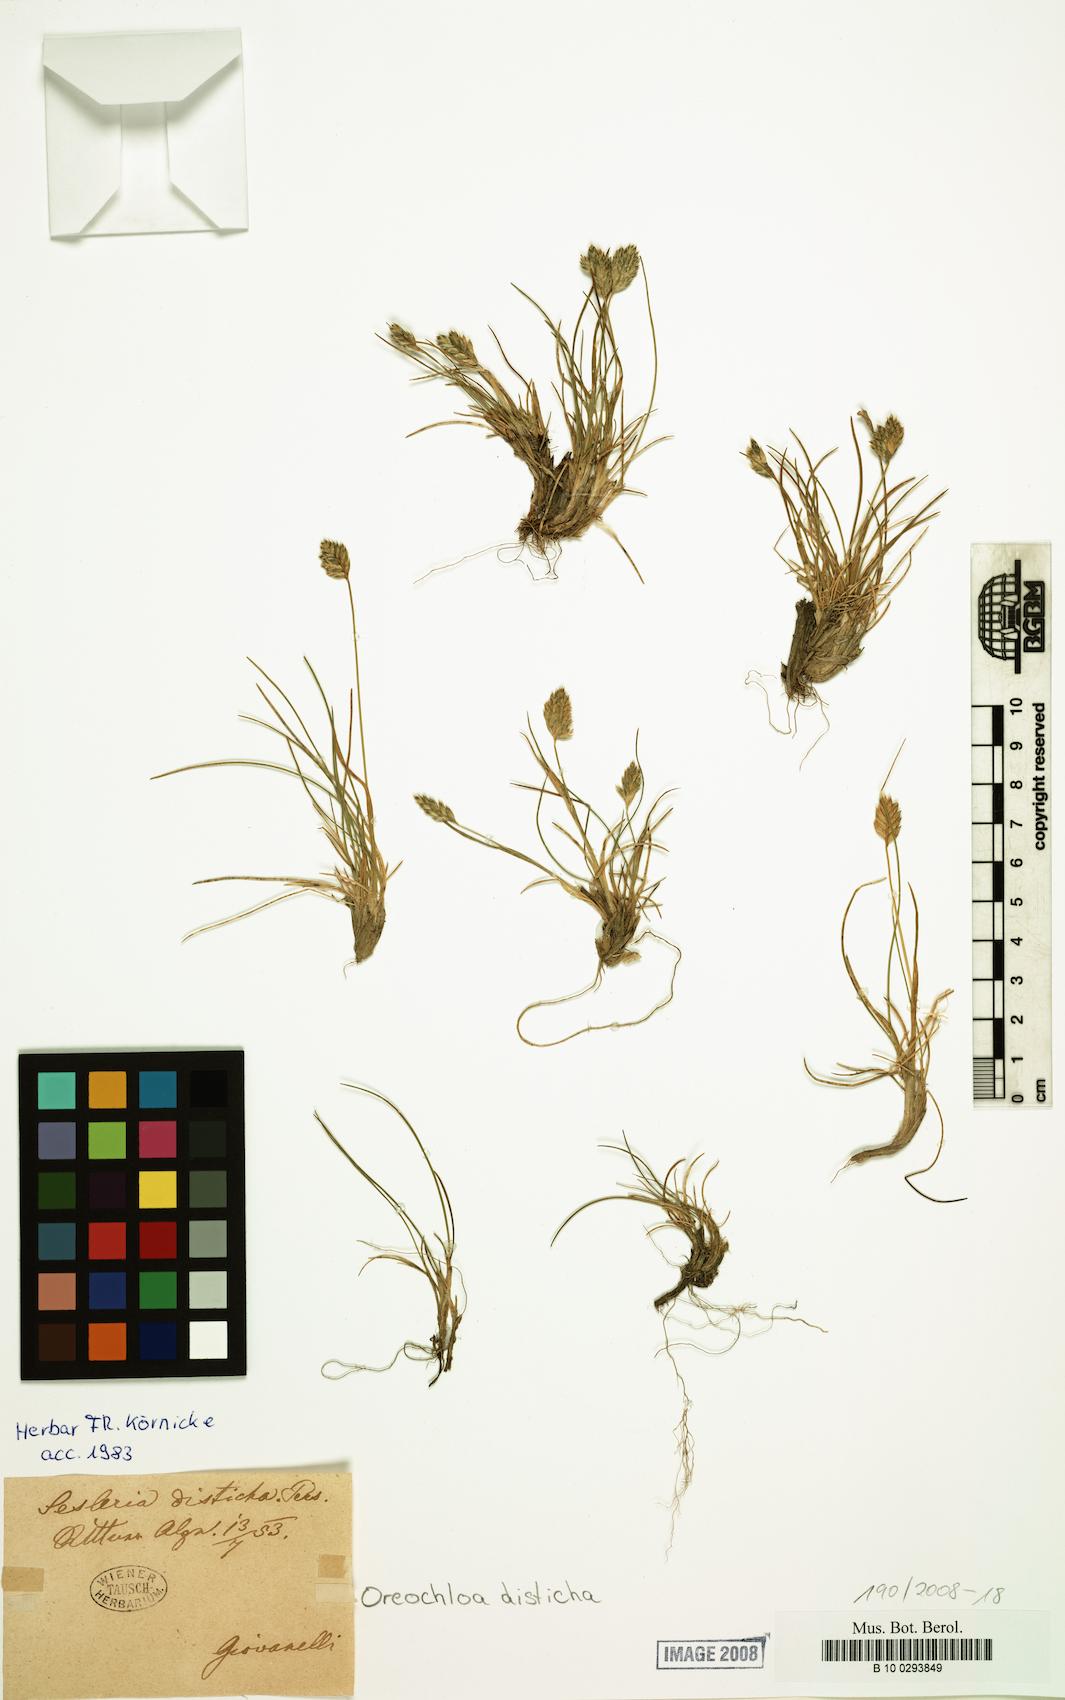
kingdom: Plantae
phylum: Tracheophyta
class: Liliopsida
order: Poales
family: Poaceae
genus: Oreochloa
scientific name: Oreochloa disticha
